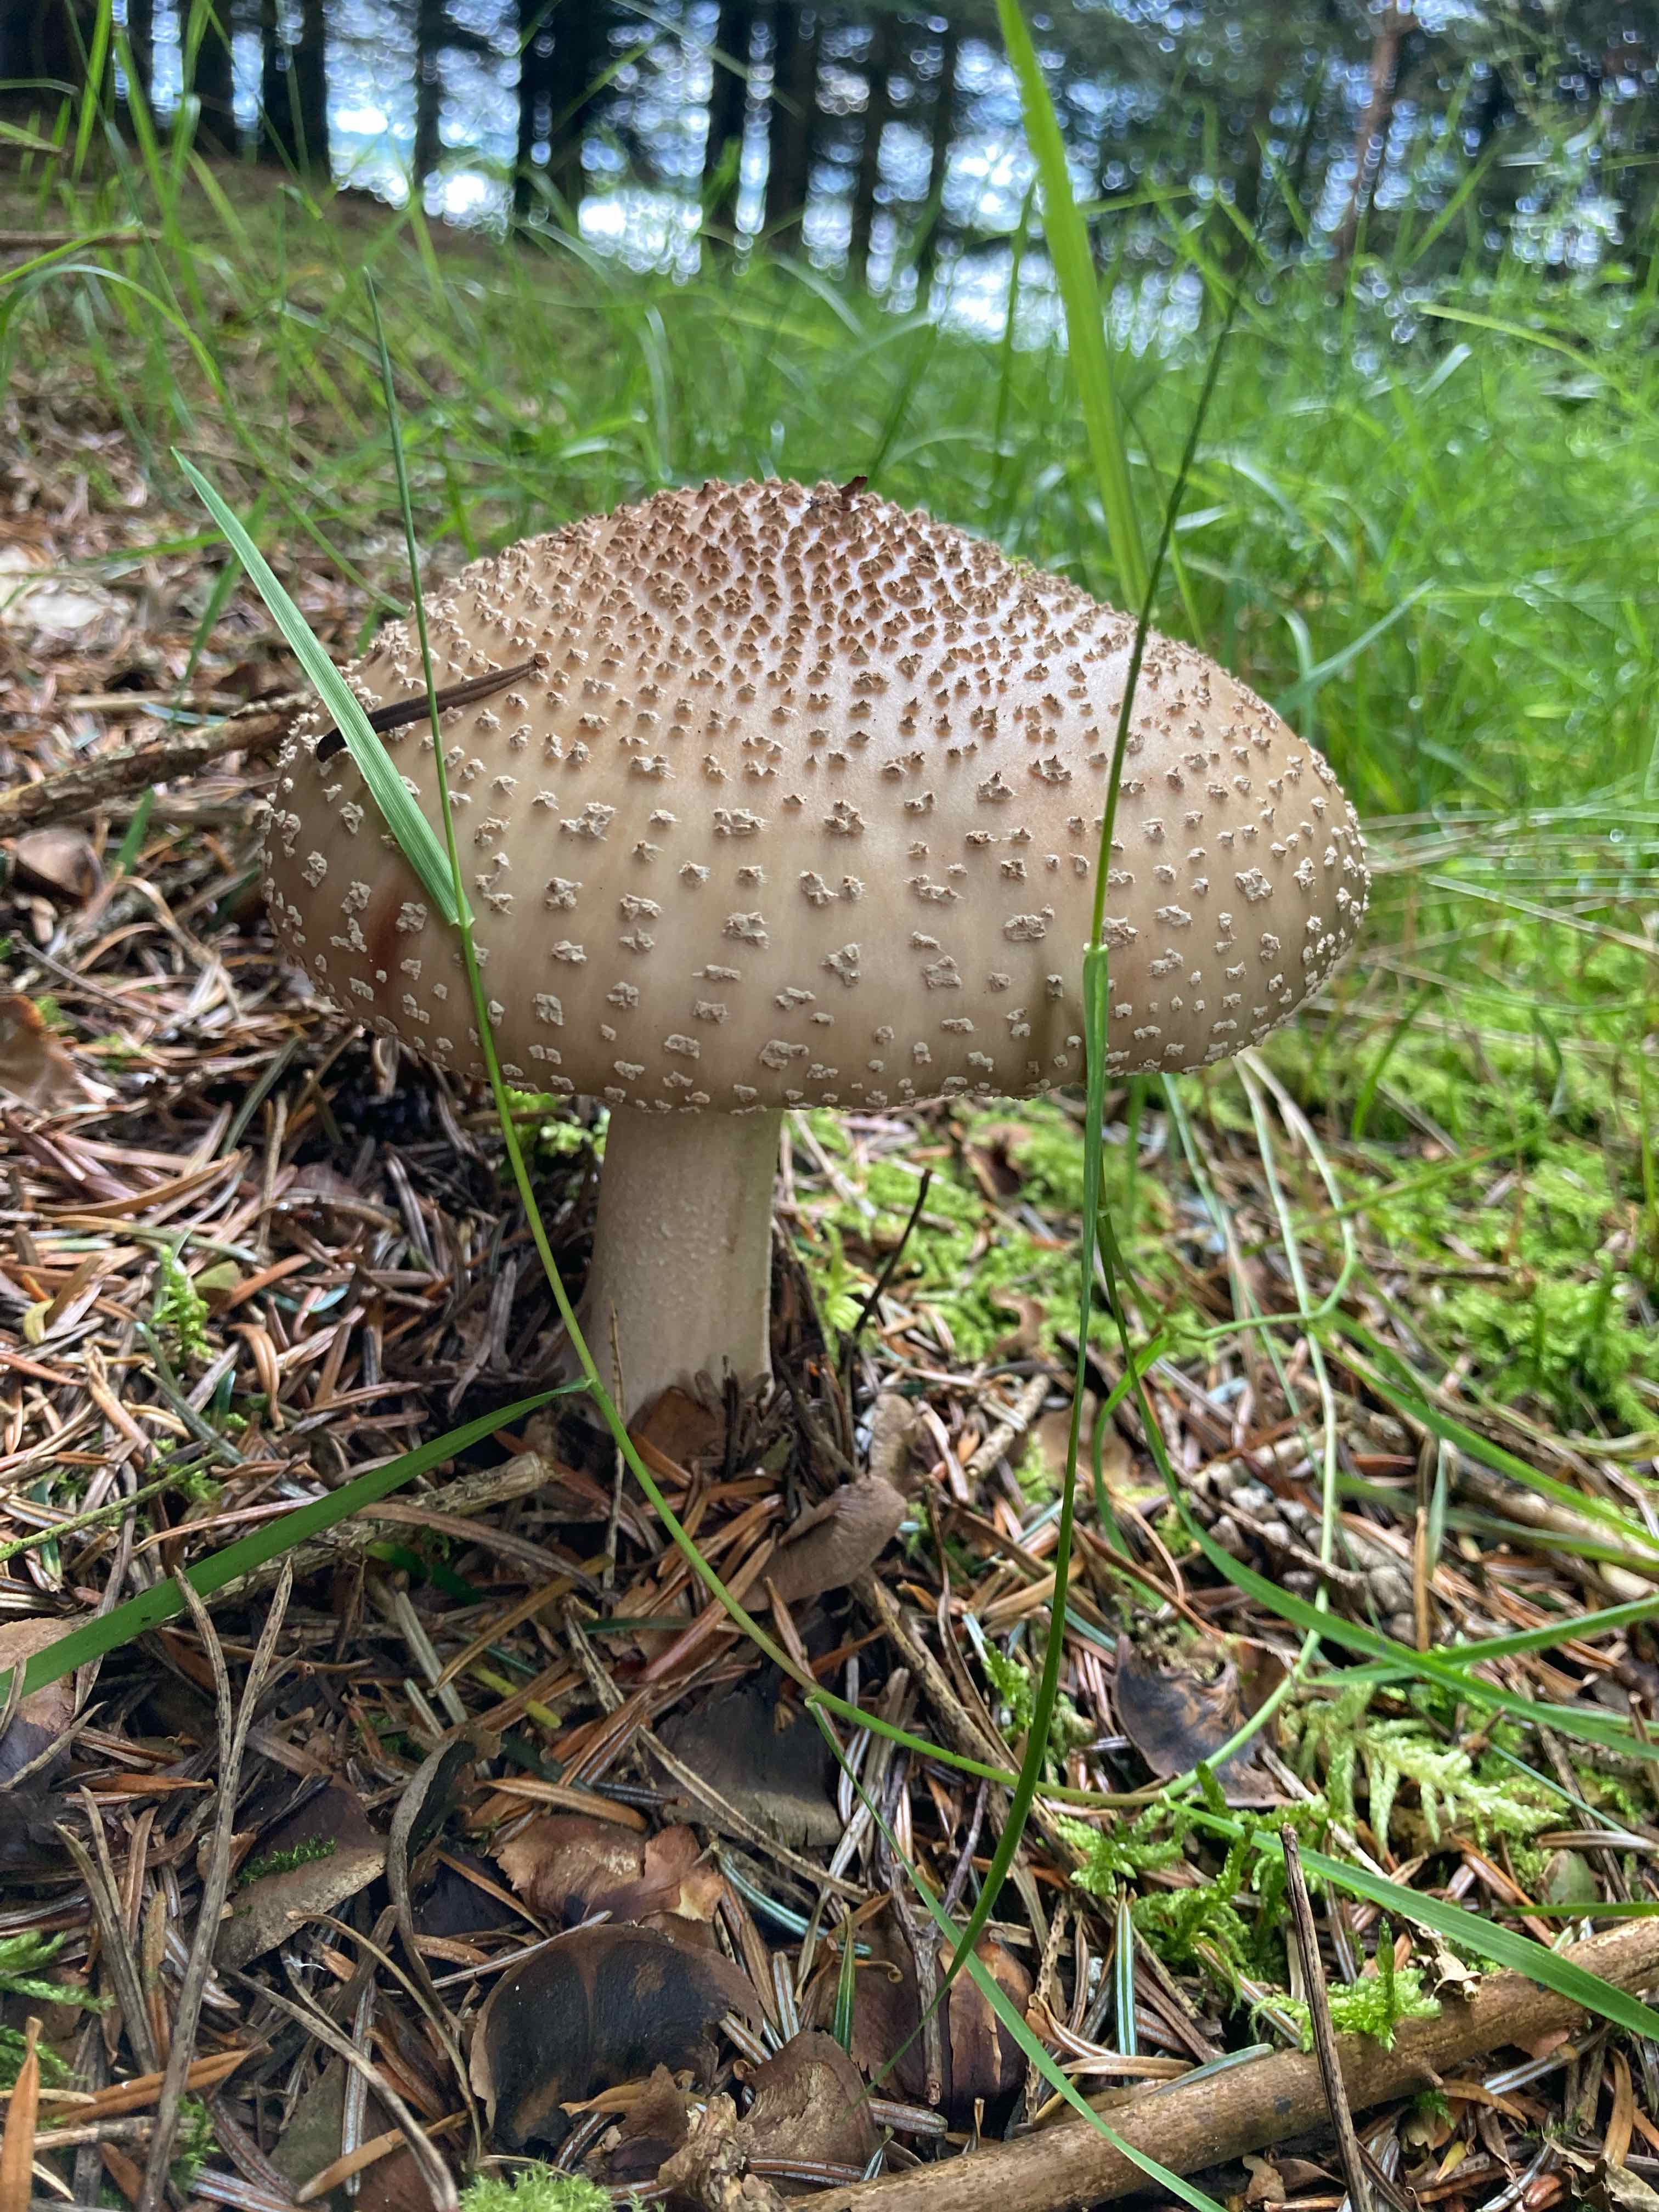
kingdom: Fungi
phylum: Basidiomycota
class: Agaricomycetes
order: Agaricales
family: Amanitaceae
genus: Amanita
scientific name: Amanita rubescens
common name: rødmende fluesvamp
